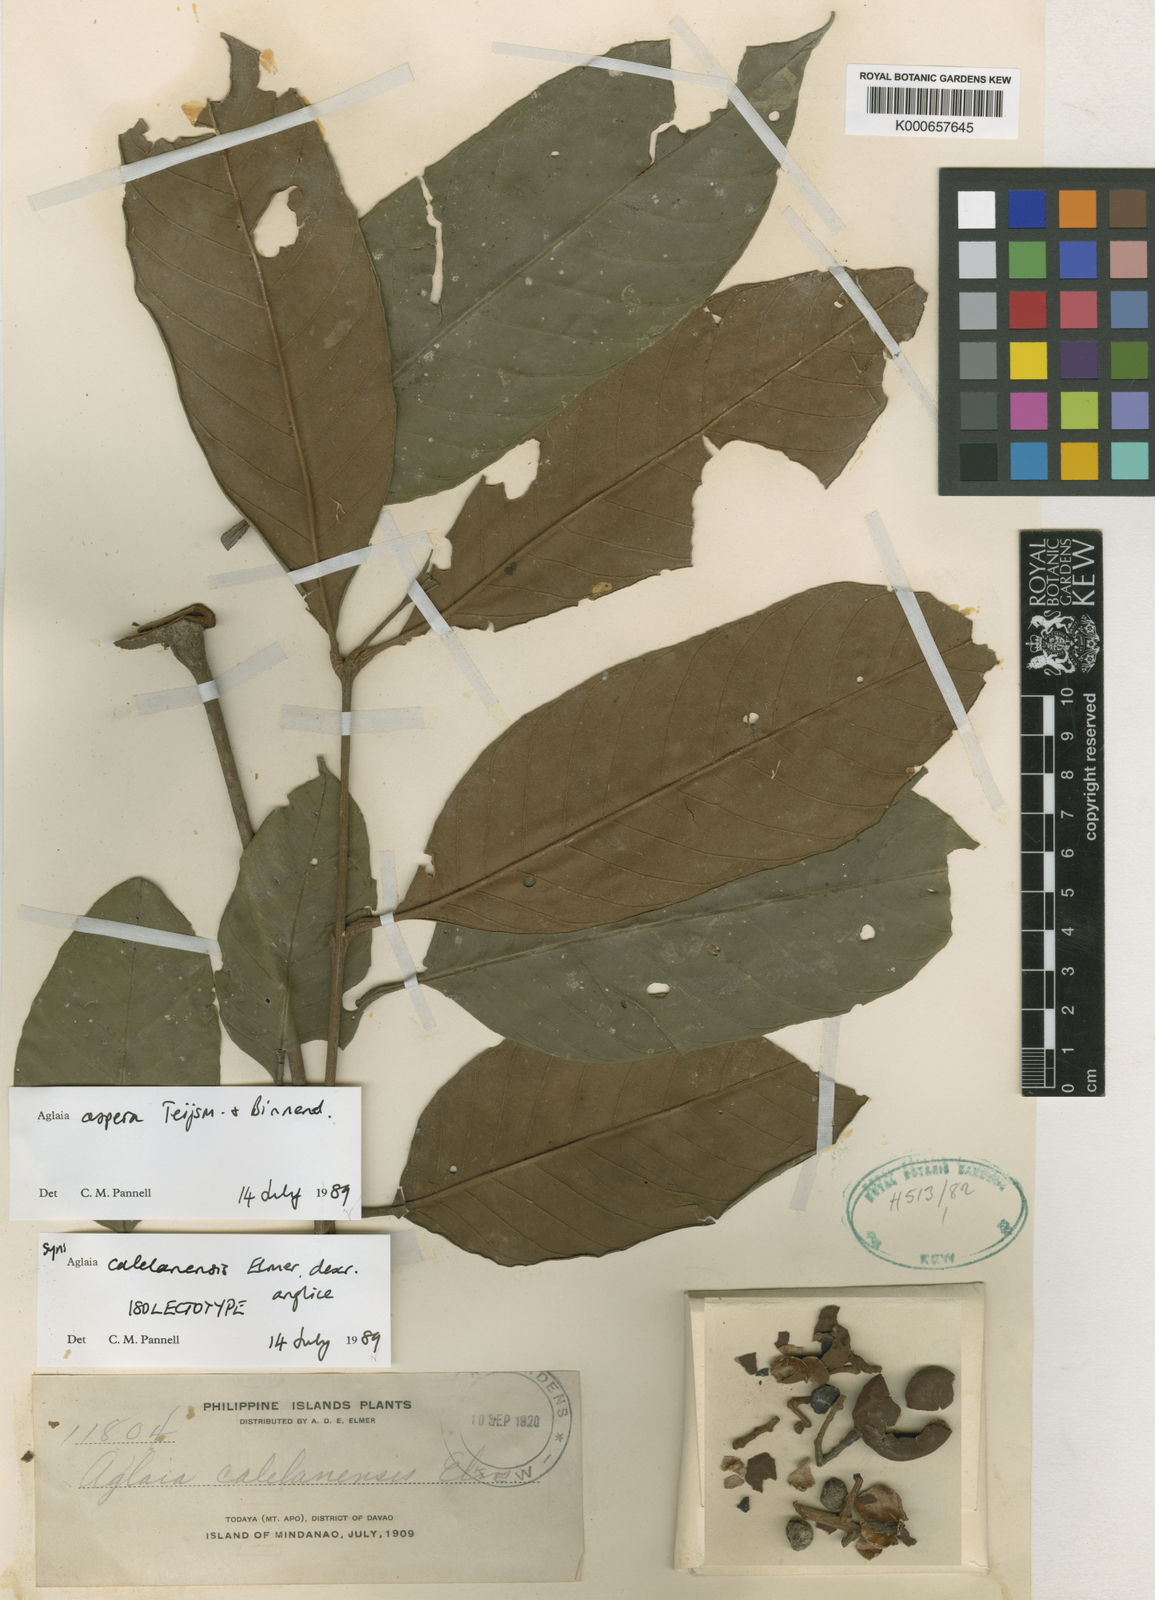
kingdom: Plantae
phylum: Tracheophyta
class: Magnoliopsida
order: Sapindales
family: Meliaceae
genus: Aglaia
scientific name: Aglaia sexipetala
